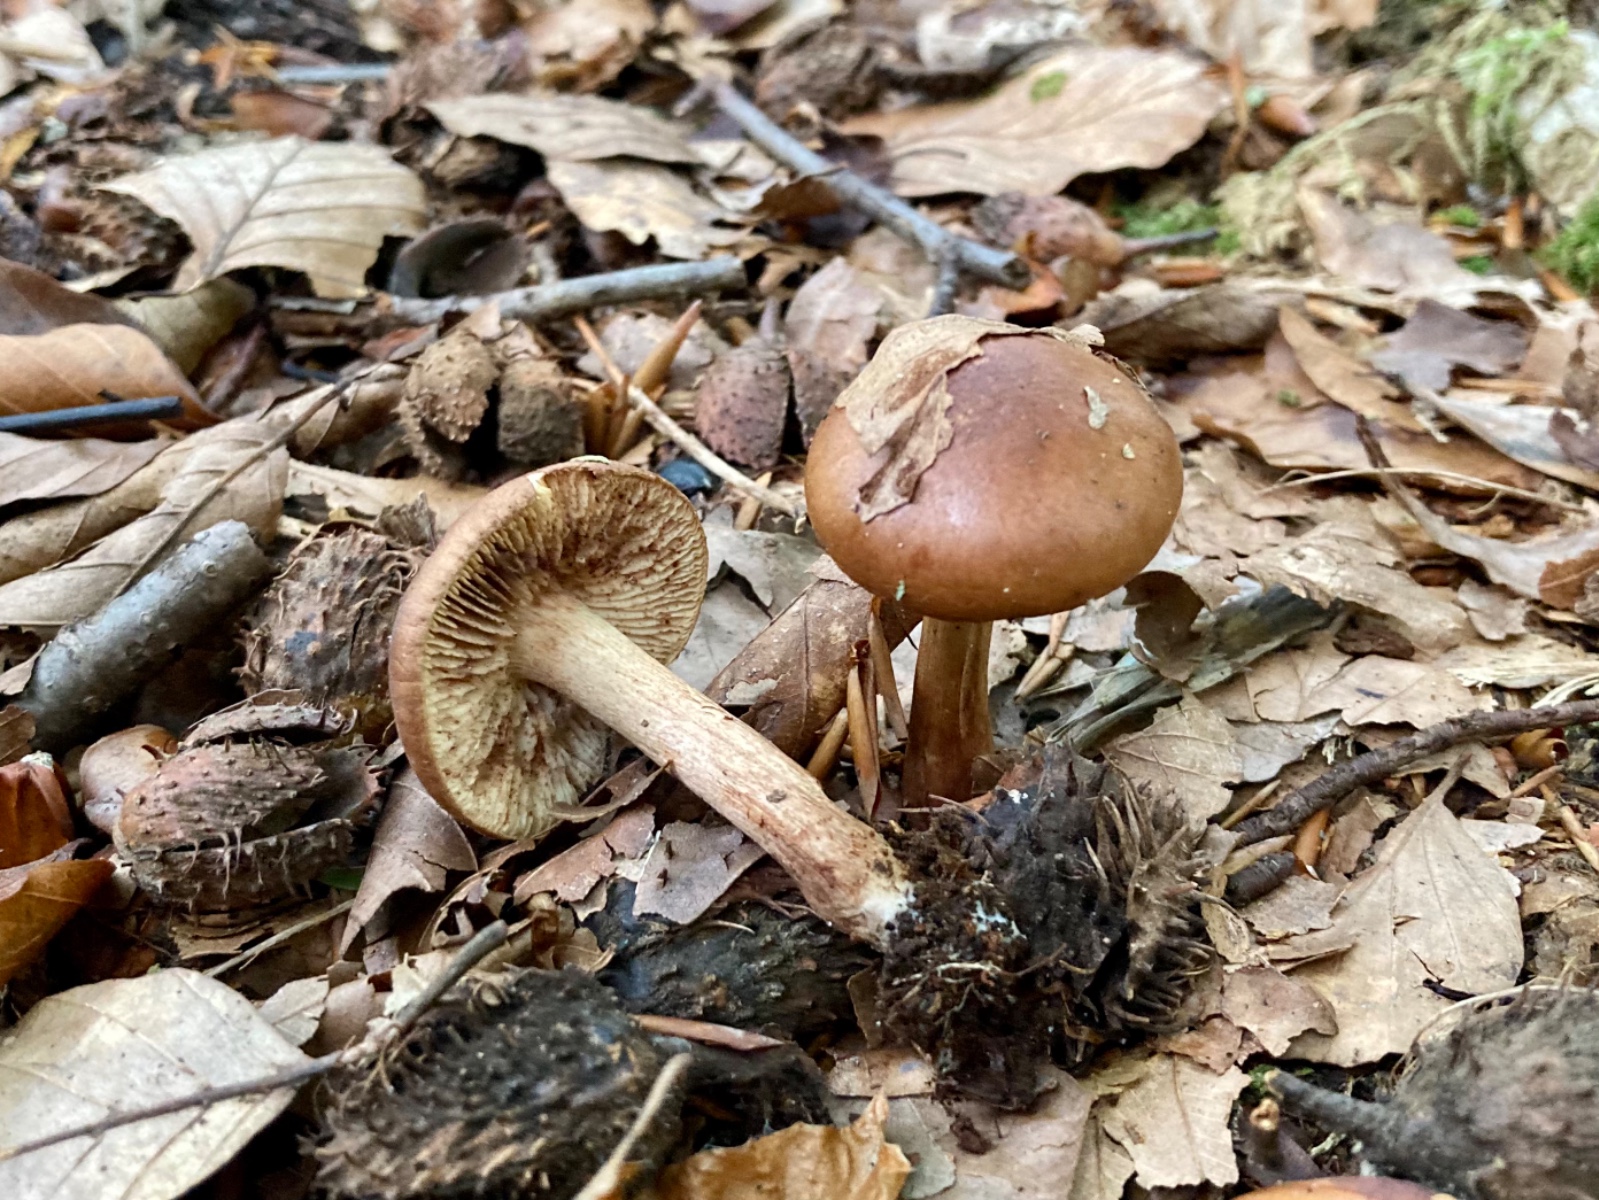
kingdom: Fungi
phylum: Basidiomycota
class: Agaricomycetes
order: Agaricales
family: Tricholomataceae
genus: Tricholoma
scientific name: Tricholoma ustale
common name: sveden ridderhat
